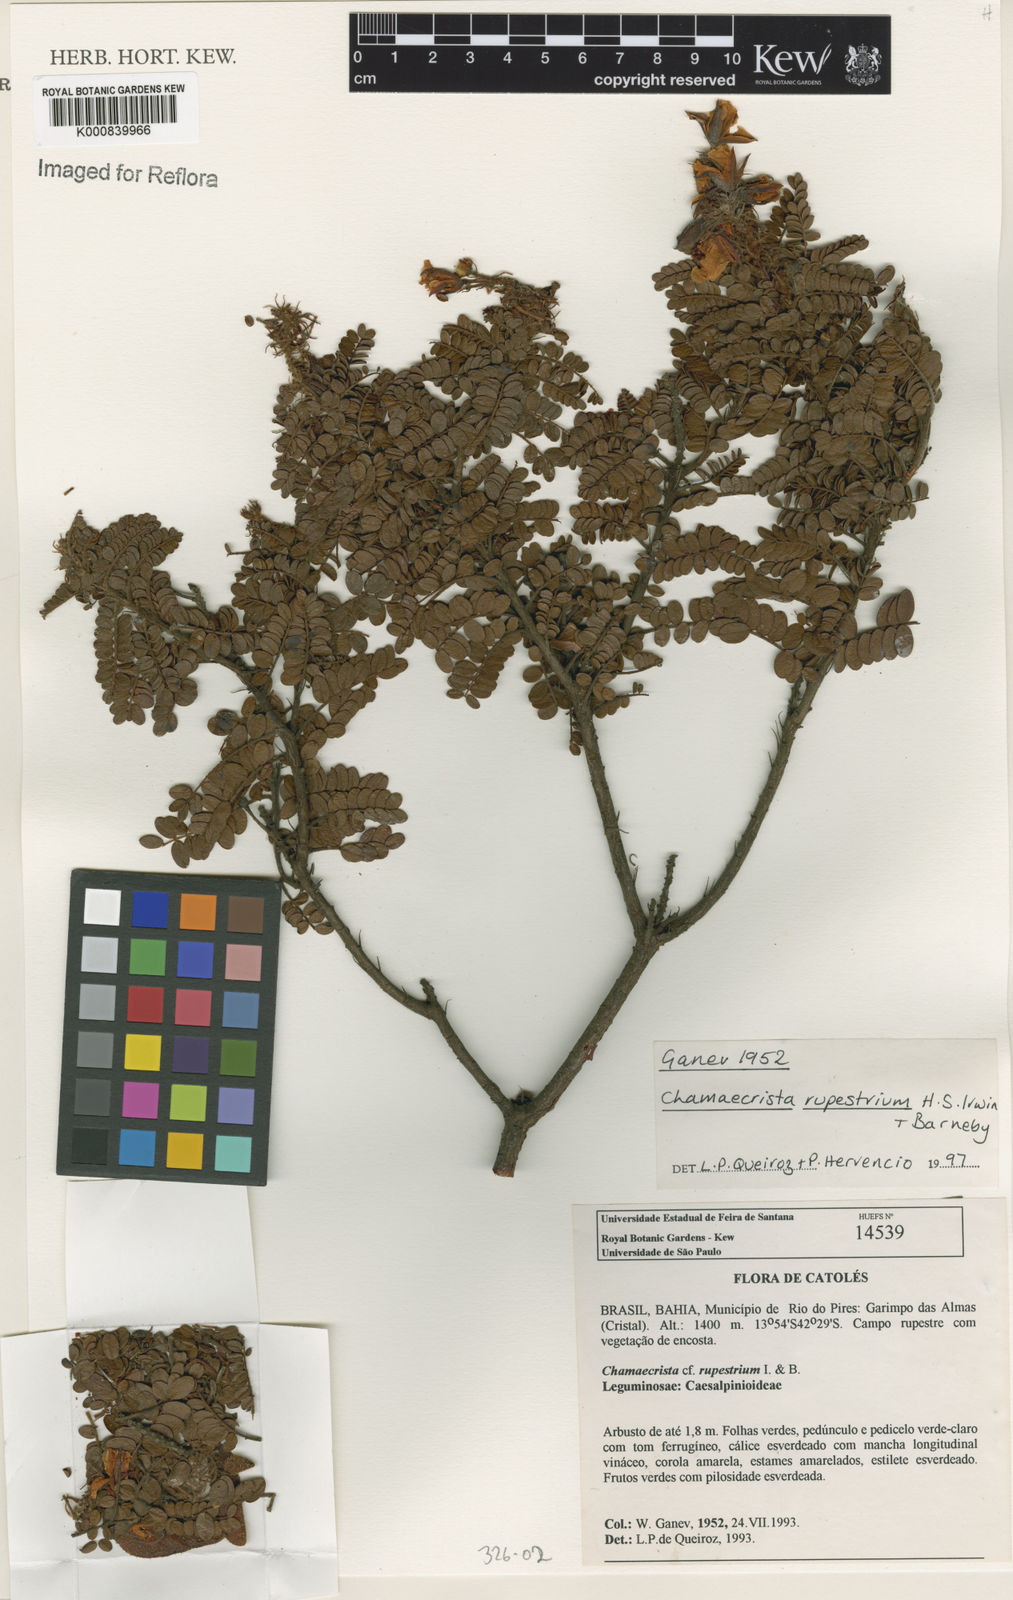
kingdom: Plantae
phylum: Tracheophyta
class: Magnoliopsida
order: Fabales
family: Fabaceae
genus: Chamaecrista
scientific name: Chamaecrista rupestrium
